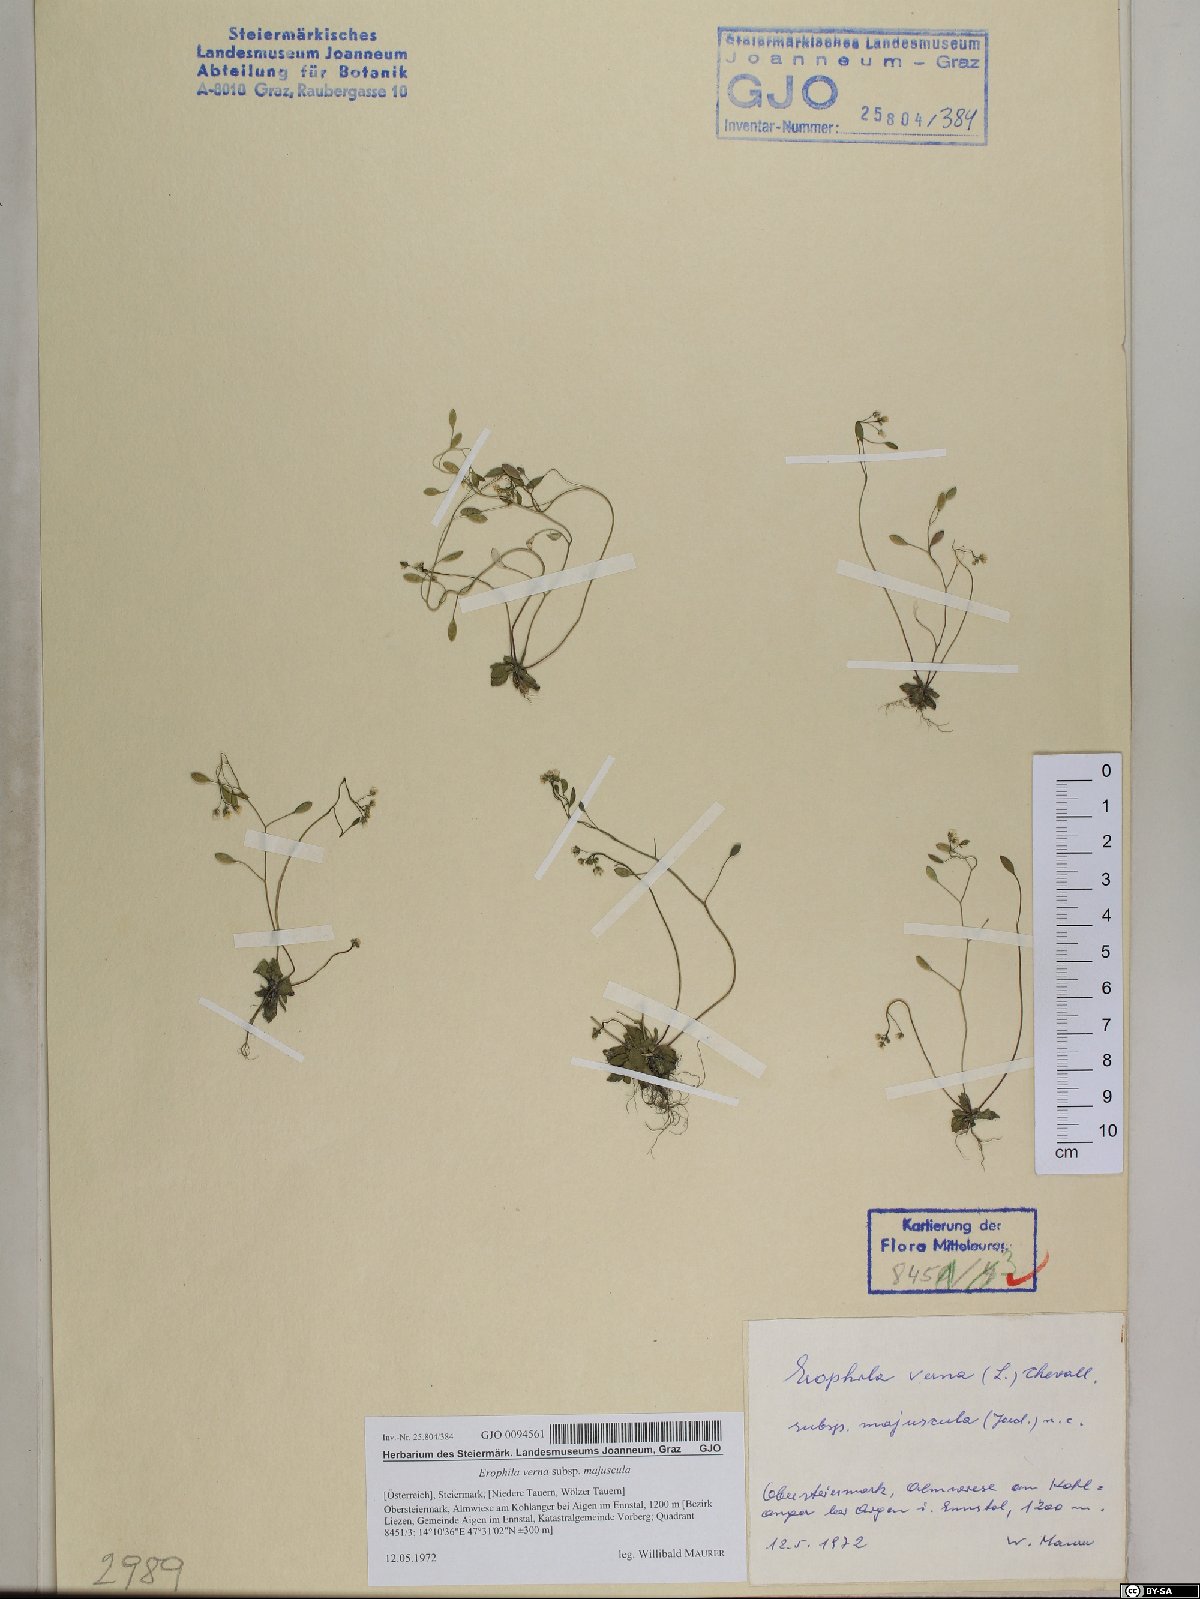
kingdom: Plantae
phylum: Tracheophyta
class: Magnoliopsida
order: Brassicales
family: Brassicaceae
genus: Draba
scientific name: Draba verna
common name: Spring draba
